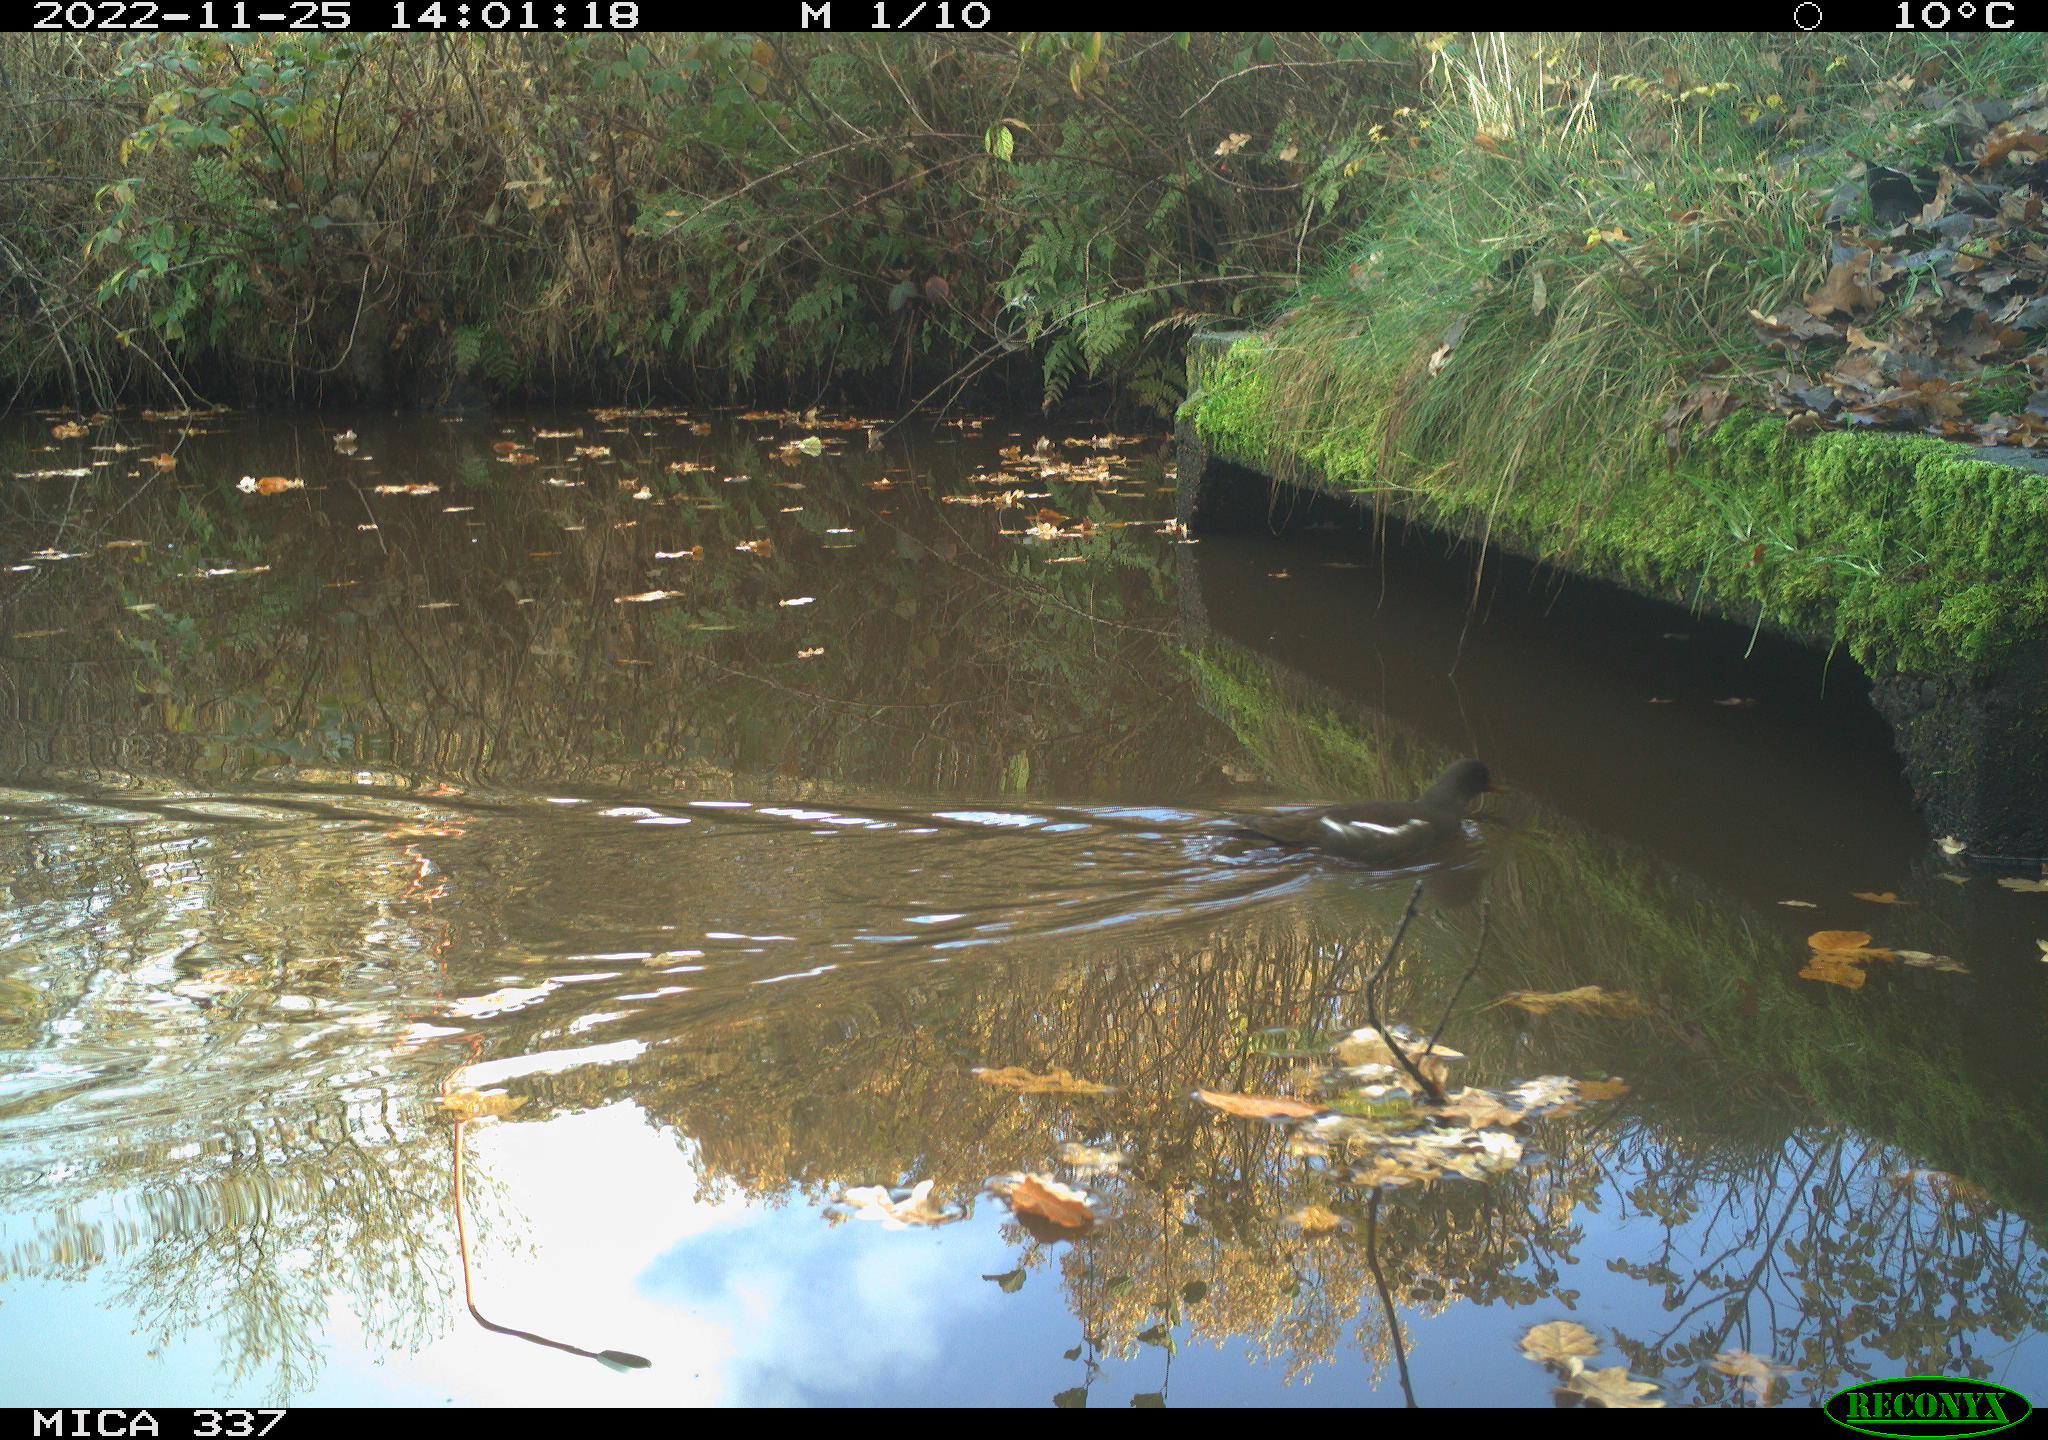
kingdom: Animalia
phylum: Chordata
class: Aves
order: Gruiformes
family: Rallidae
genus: Gallinula
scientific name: Gallinula chloropus
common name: Common moorhen
